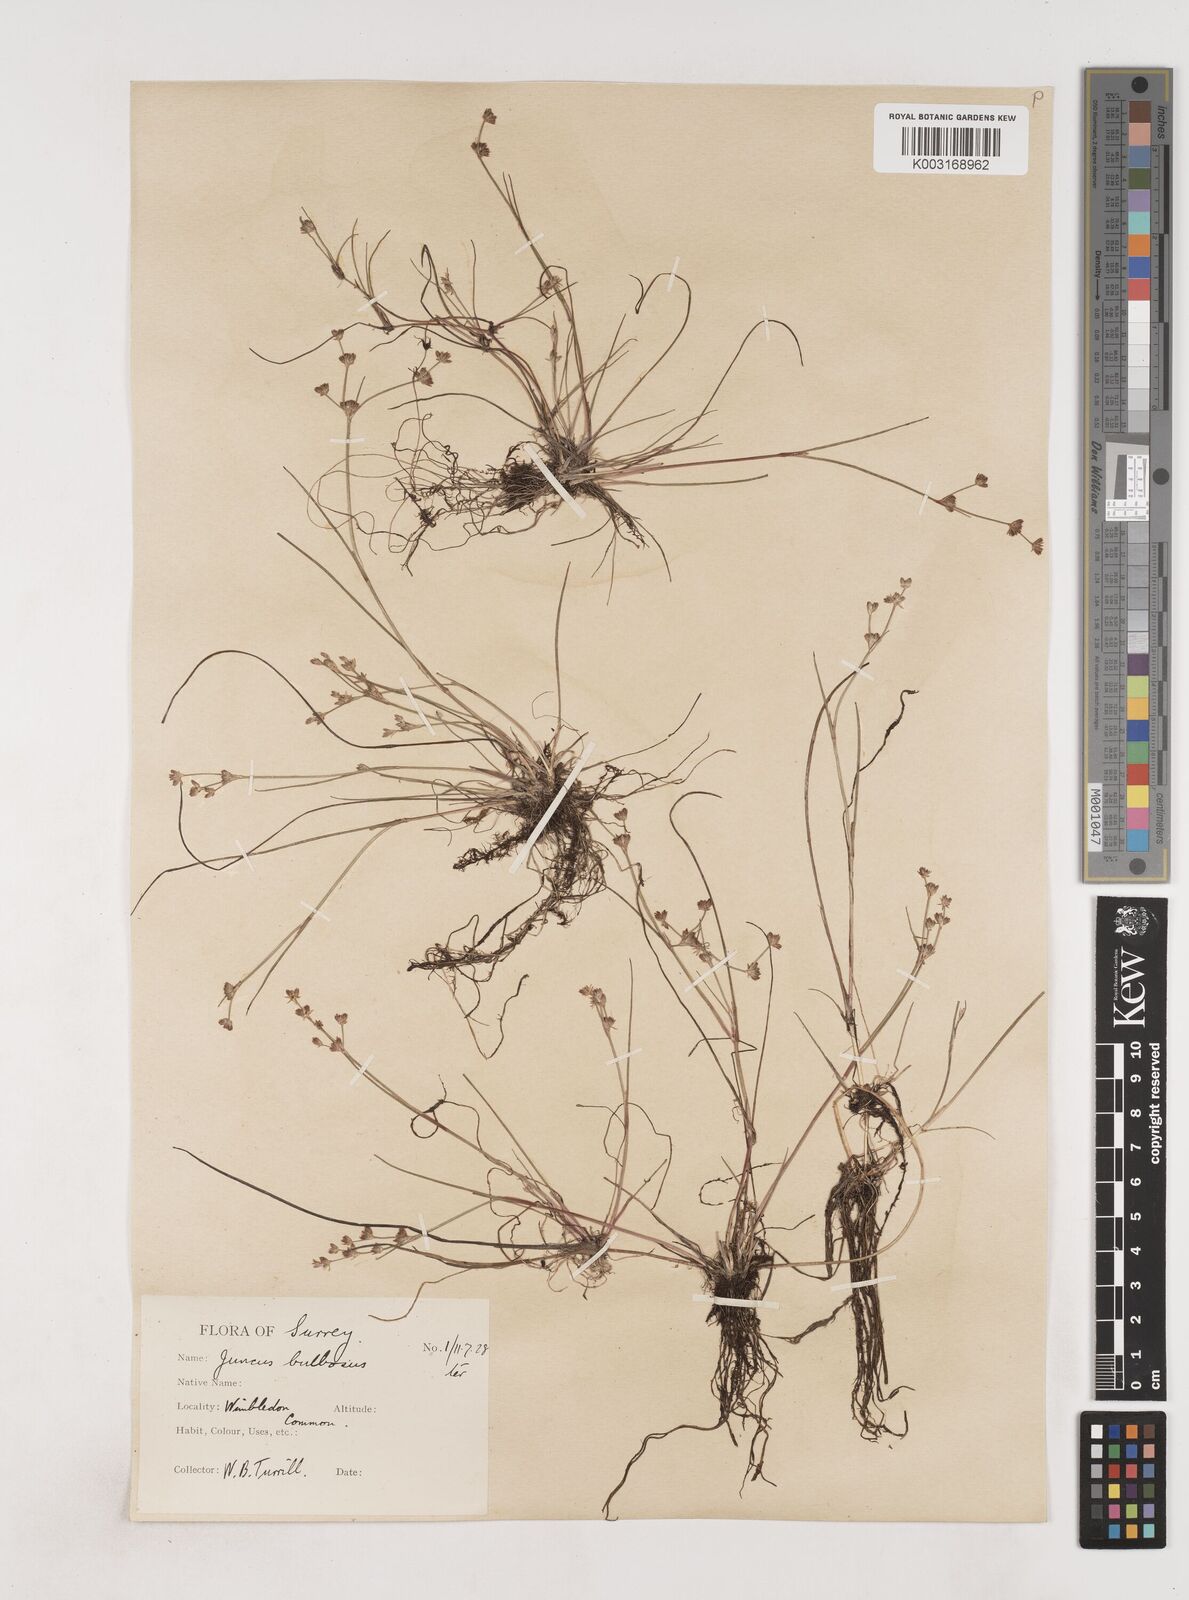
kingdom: Plantae
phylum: Tracheophyta
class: Liliopsida
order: Poales
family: Juncaceae
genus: Juncus
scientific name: Juncus bulbosus
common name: Bulbous rush
